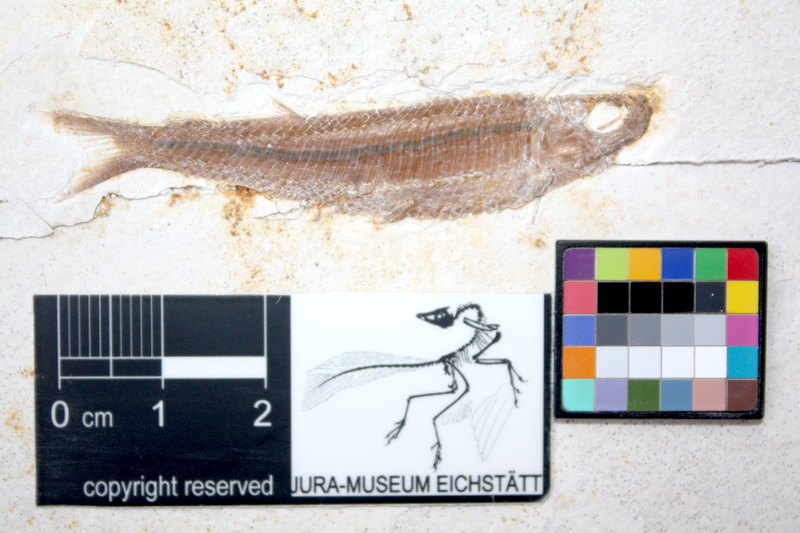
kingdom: Animalia
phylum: Chordata
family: Pleuropholidae
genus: Pleuropholis
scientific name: Pleuropholis laevissima
